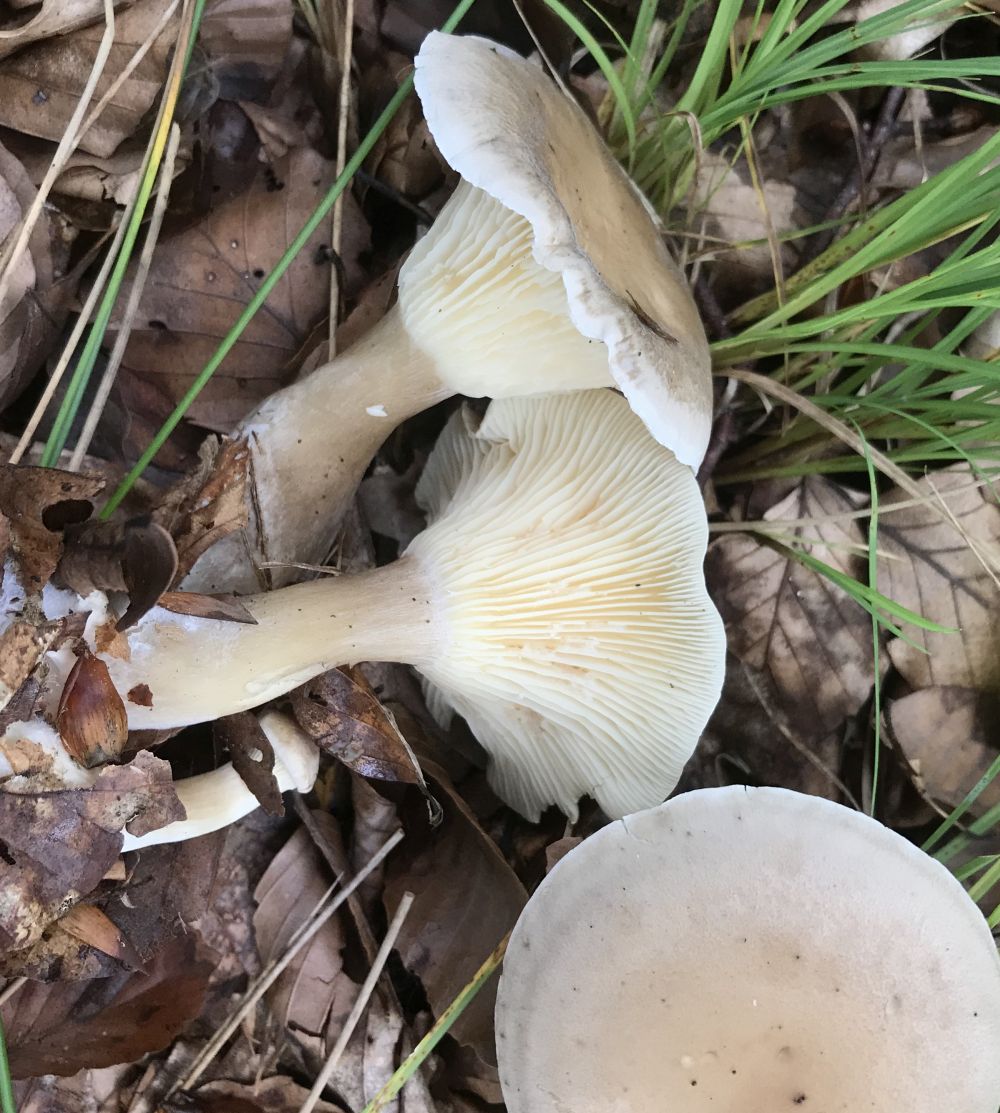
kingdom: Fungi
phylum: Basidiomycota
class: Agaricomycetes
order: Agaricales
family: Hygrophoraceae
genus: Ampulloclitocybe
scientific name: Ampulloclitocybe clavipes
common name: køllefod
